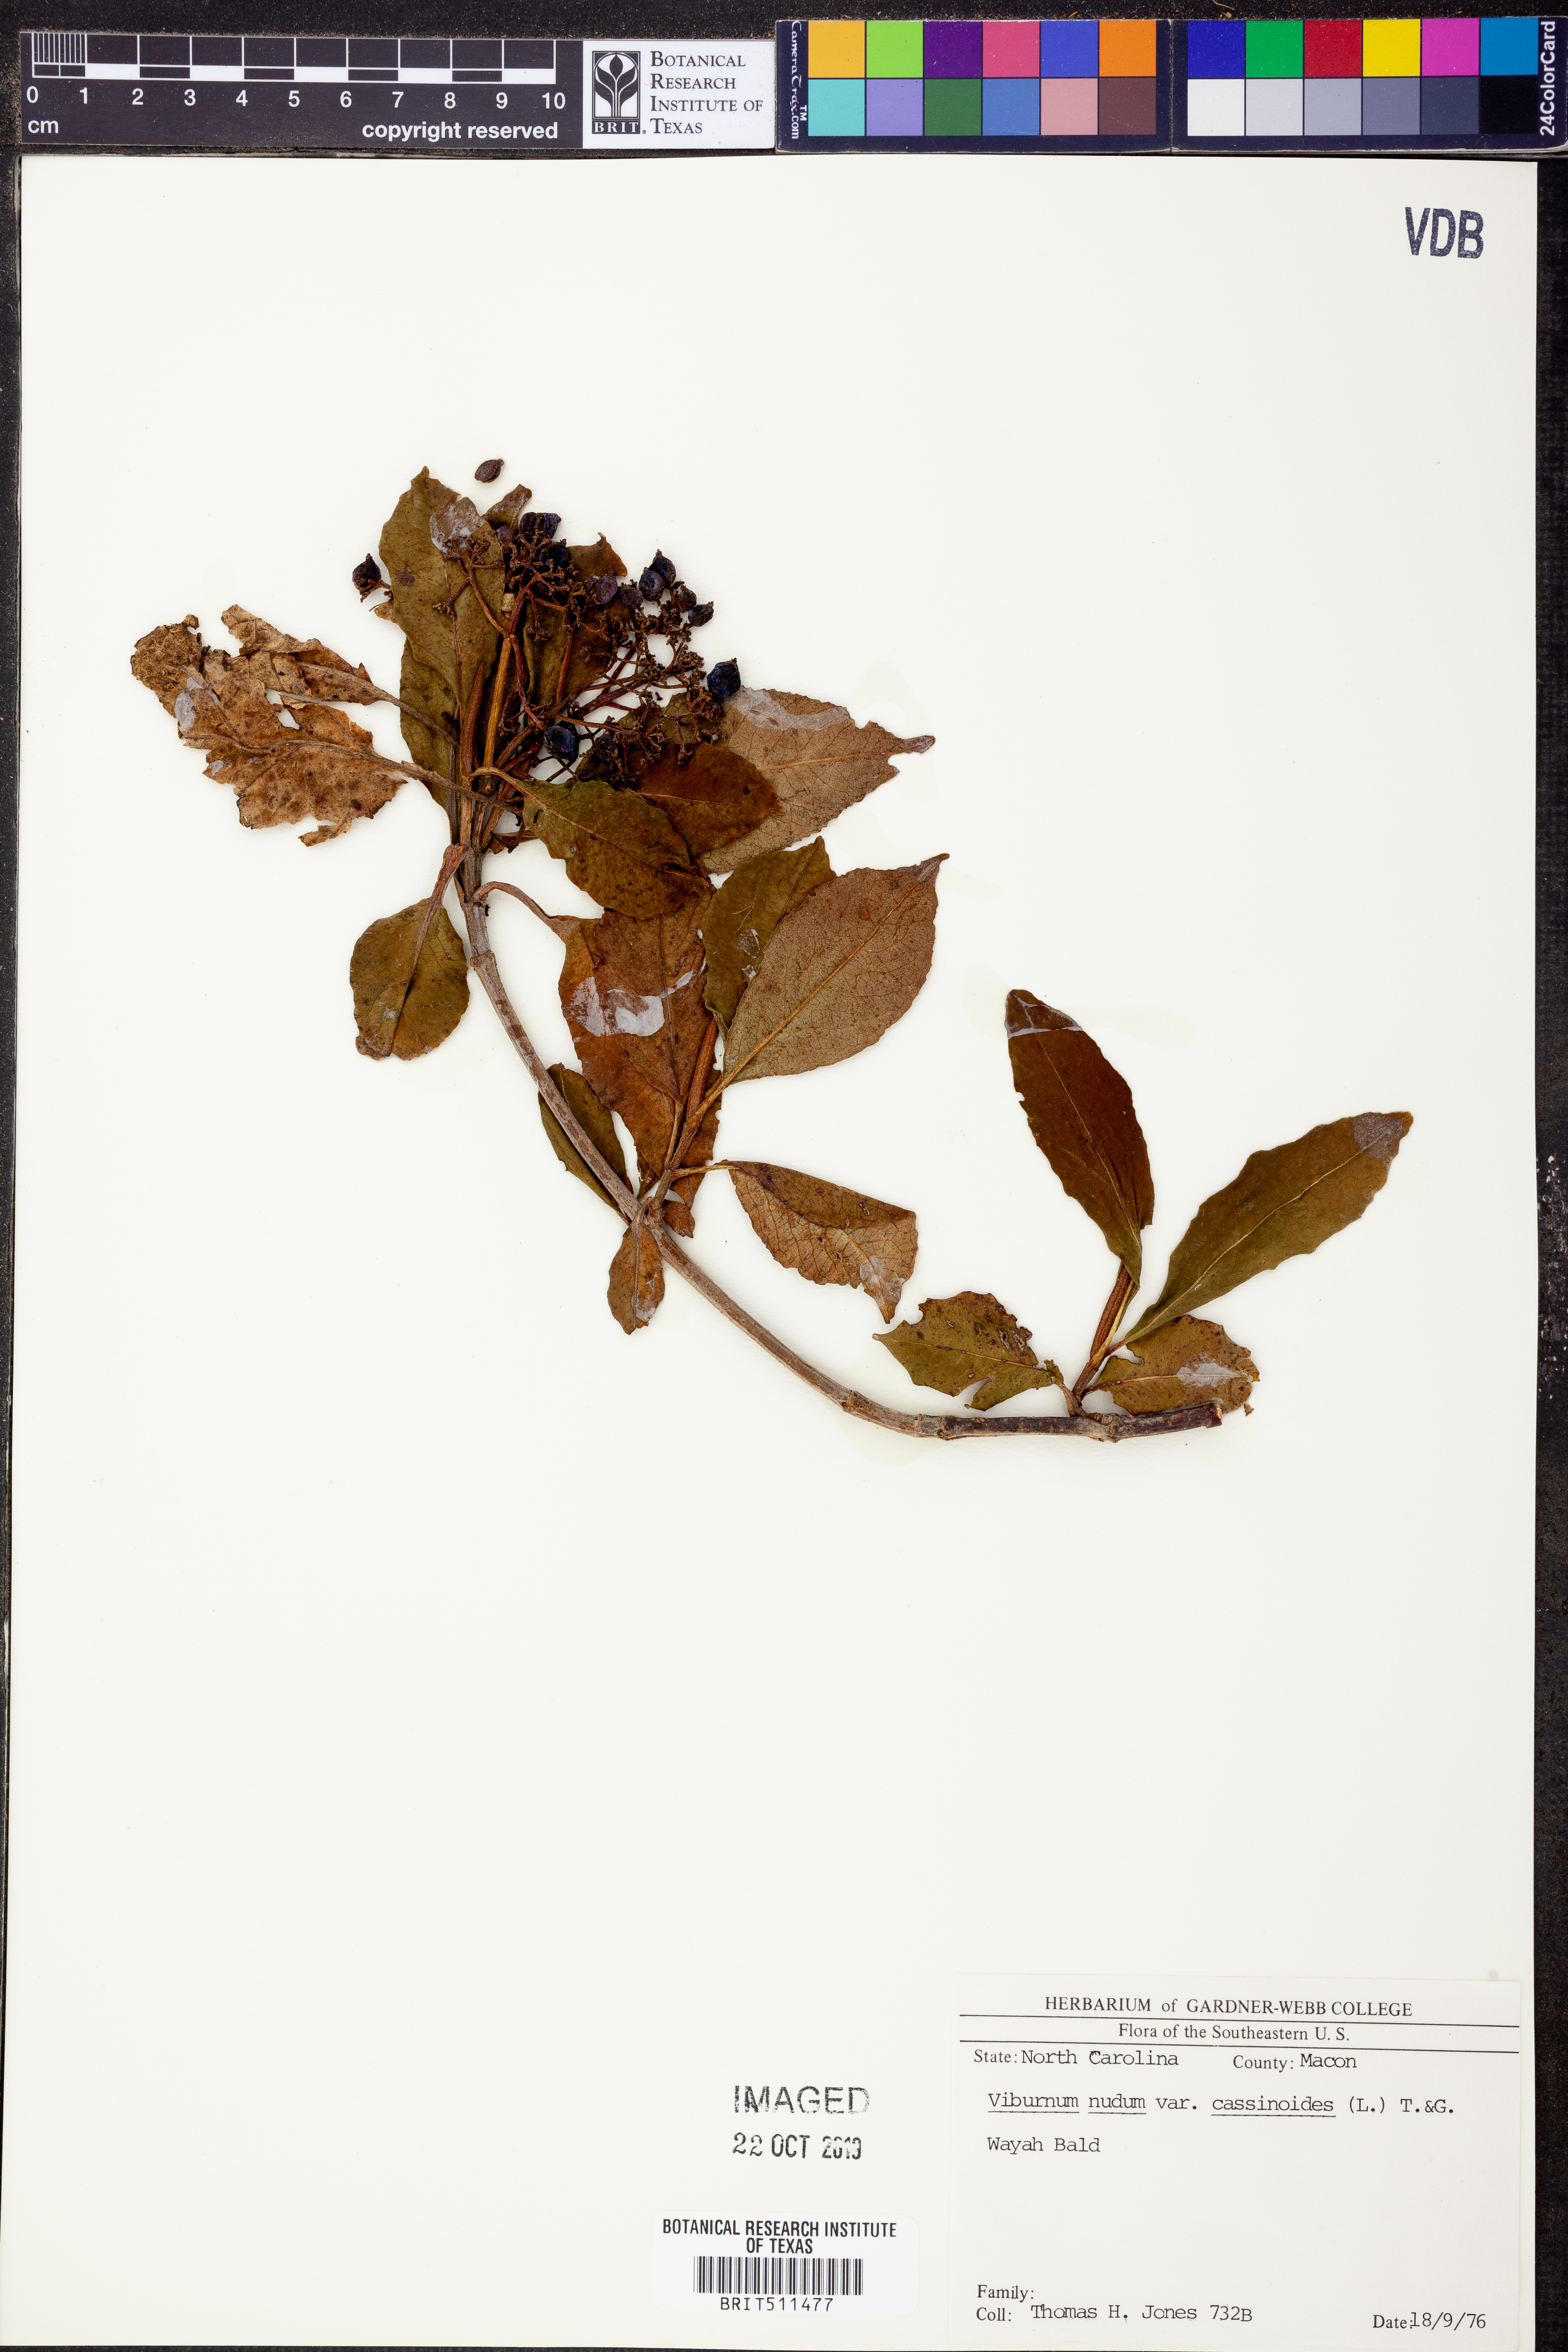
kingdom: Plantae
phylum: Tracheophyta
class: Magnoliopsida
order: Dipsacales
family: Viburnaceae
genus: Viburnum
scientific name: Viburnum cassinoides
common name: Swamp haw
